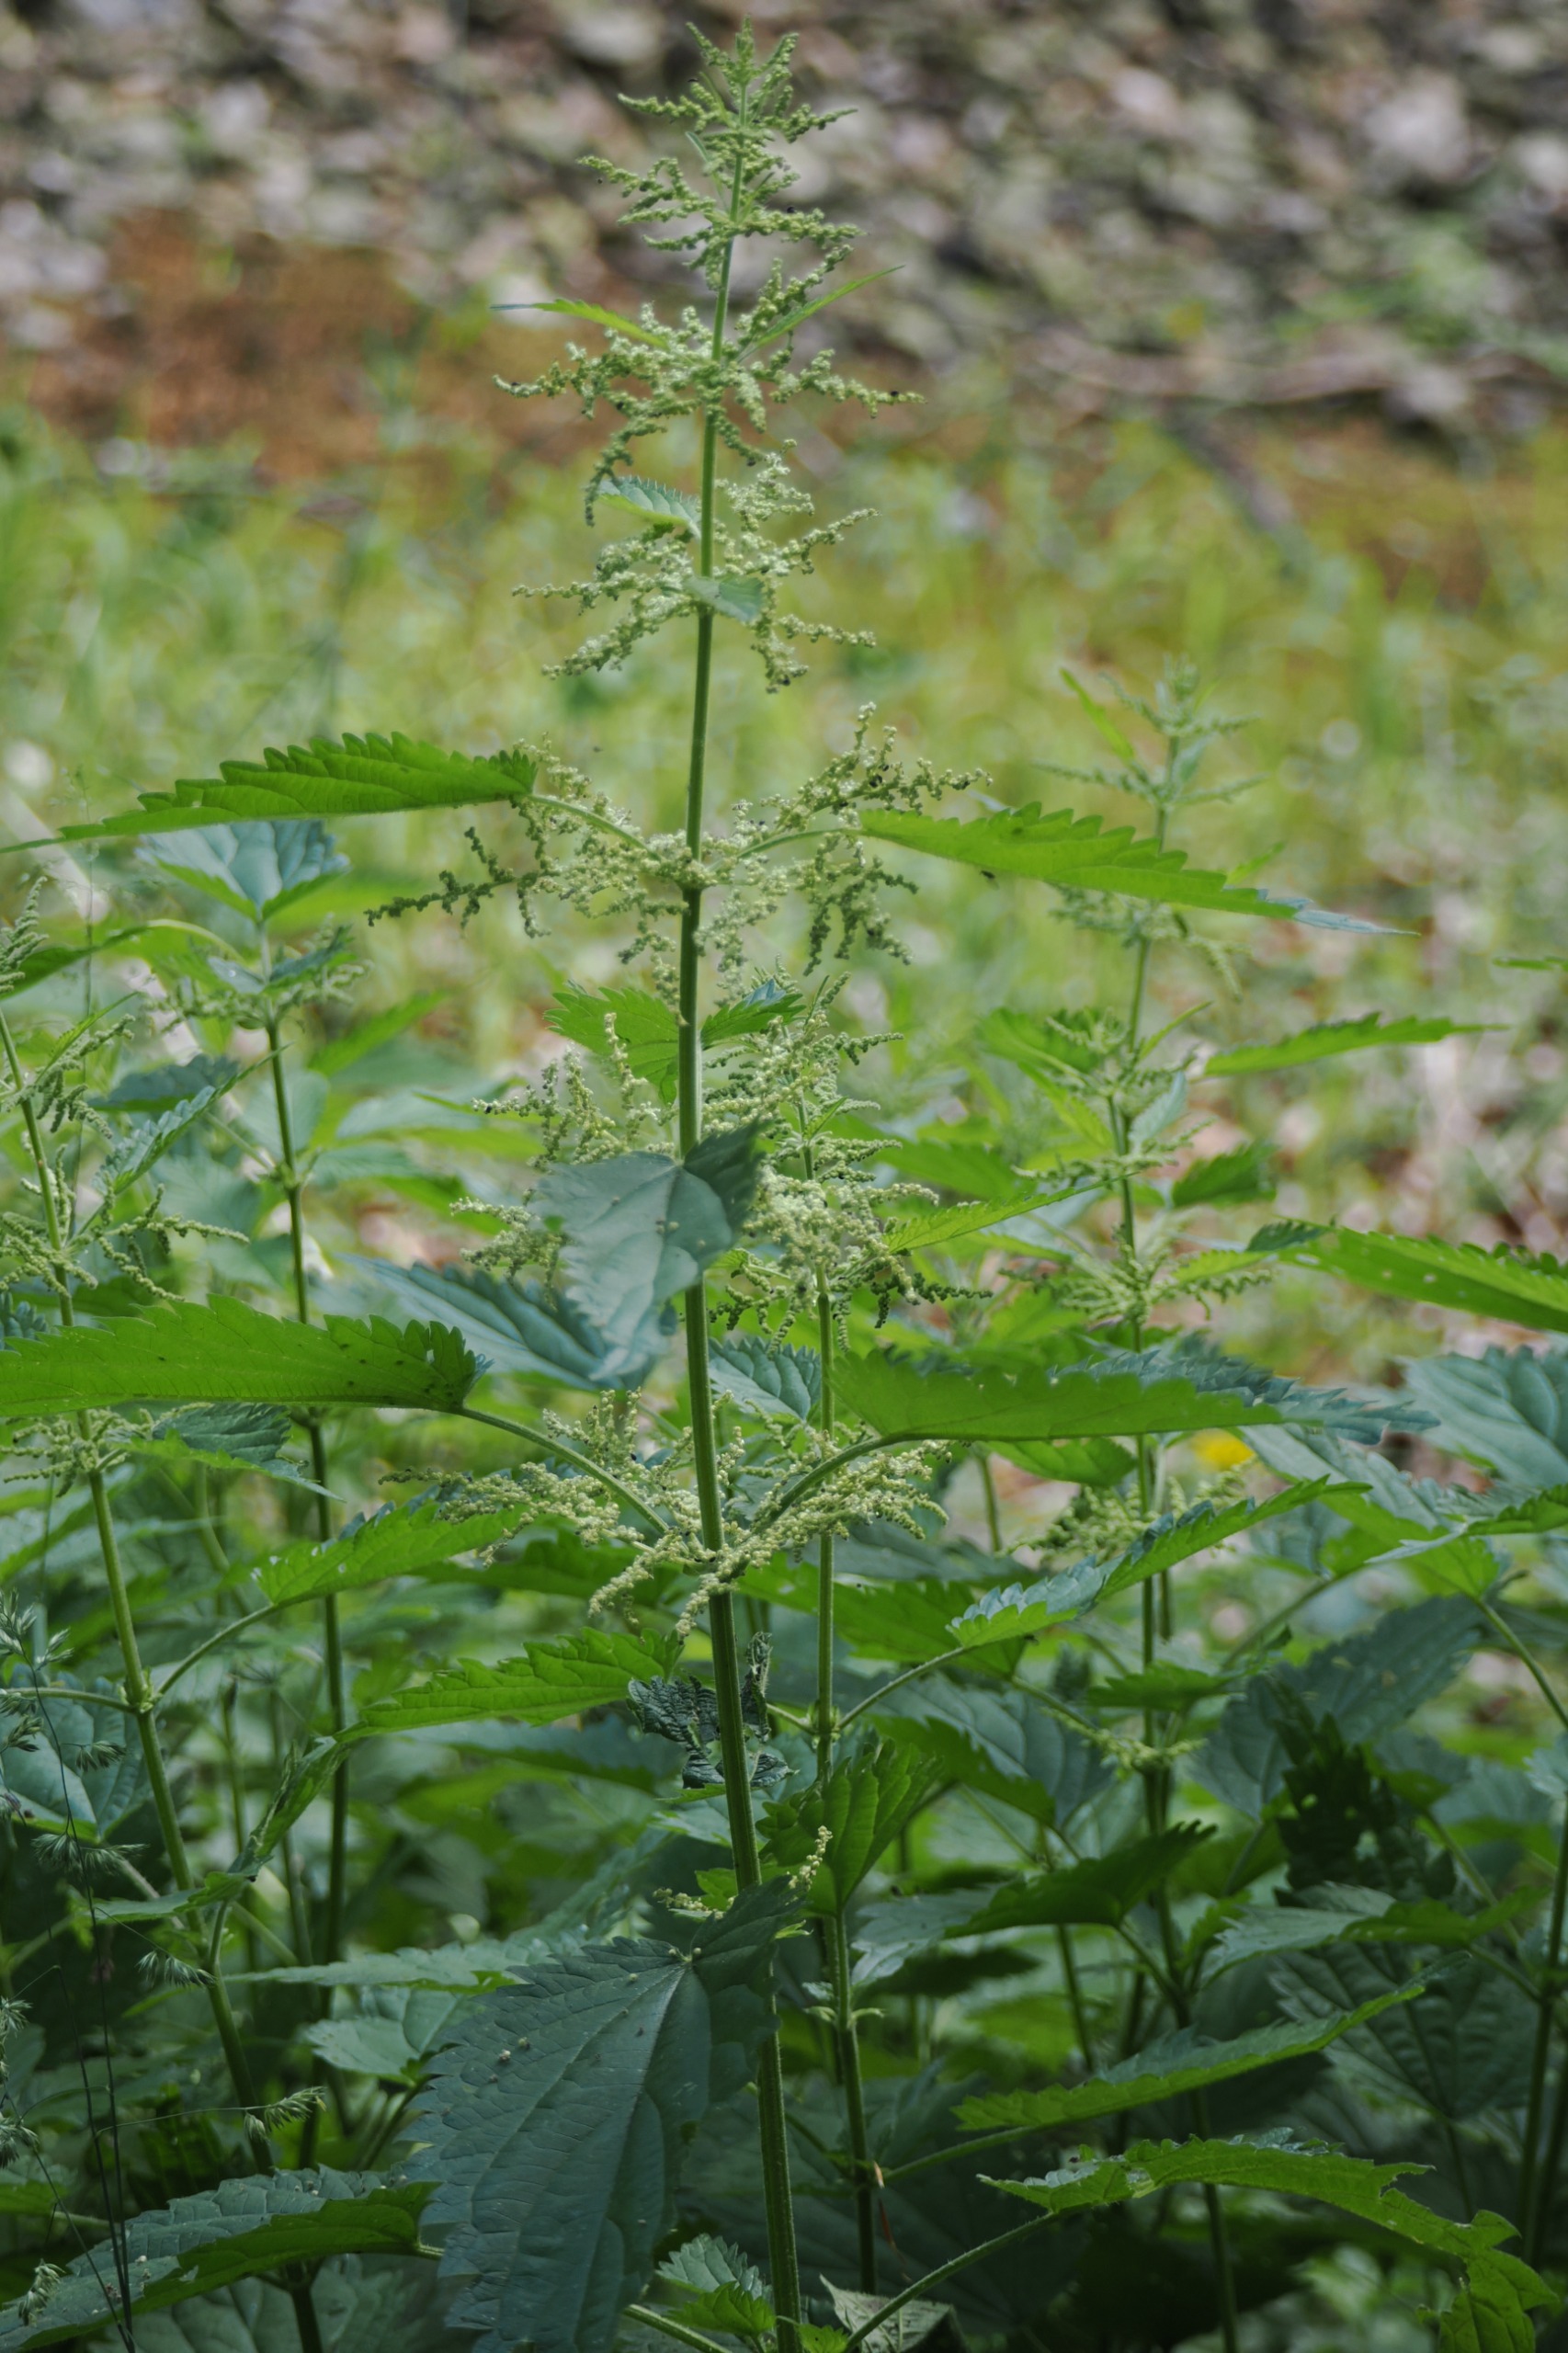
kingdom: Plantae
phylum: Tracheophyta
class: Magnoliopsida
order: Rosales
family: Urticaceae
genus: Urtica
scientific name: Urtica dioica
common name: Stor nælde
